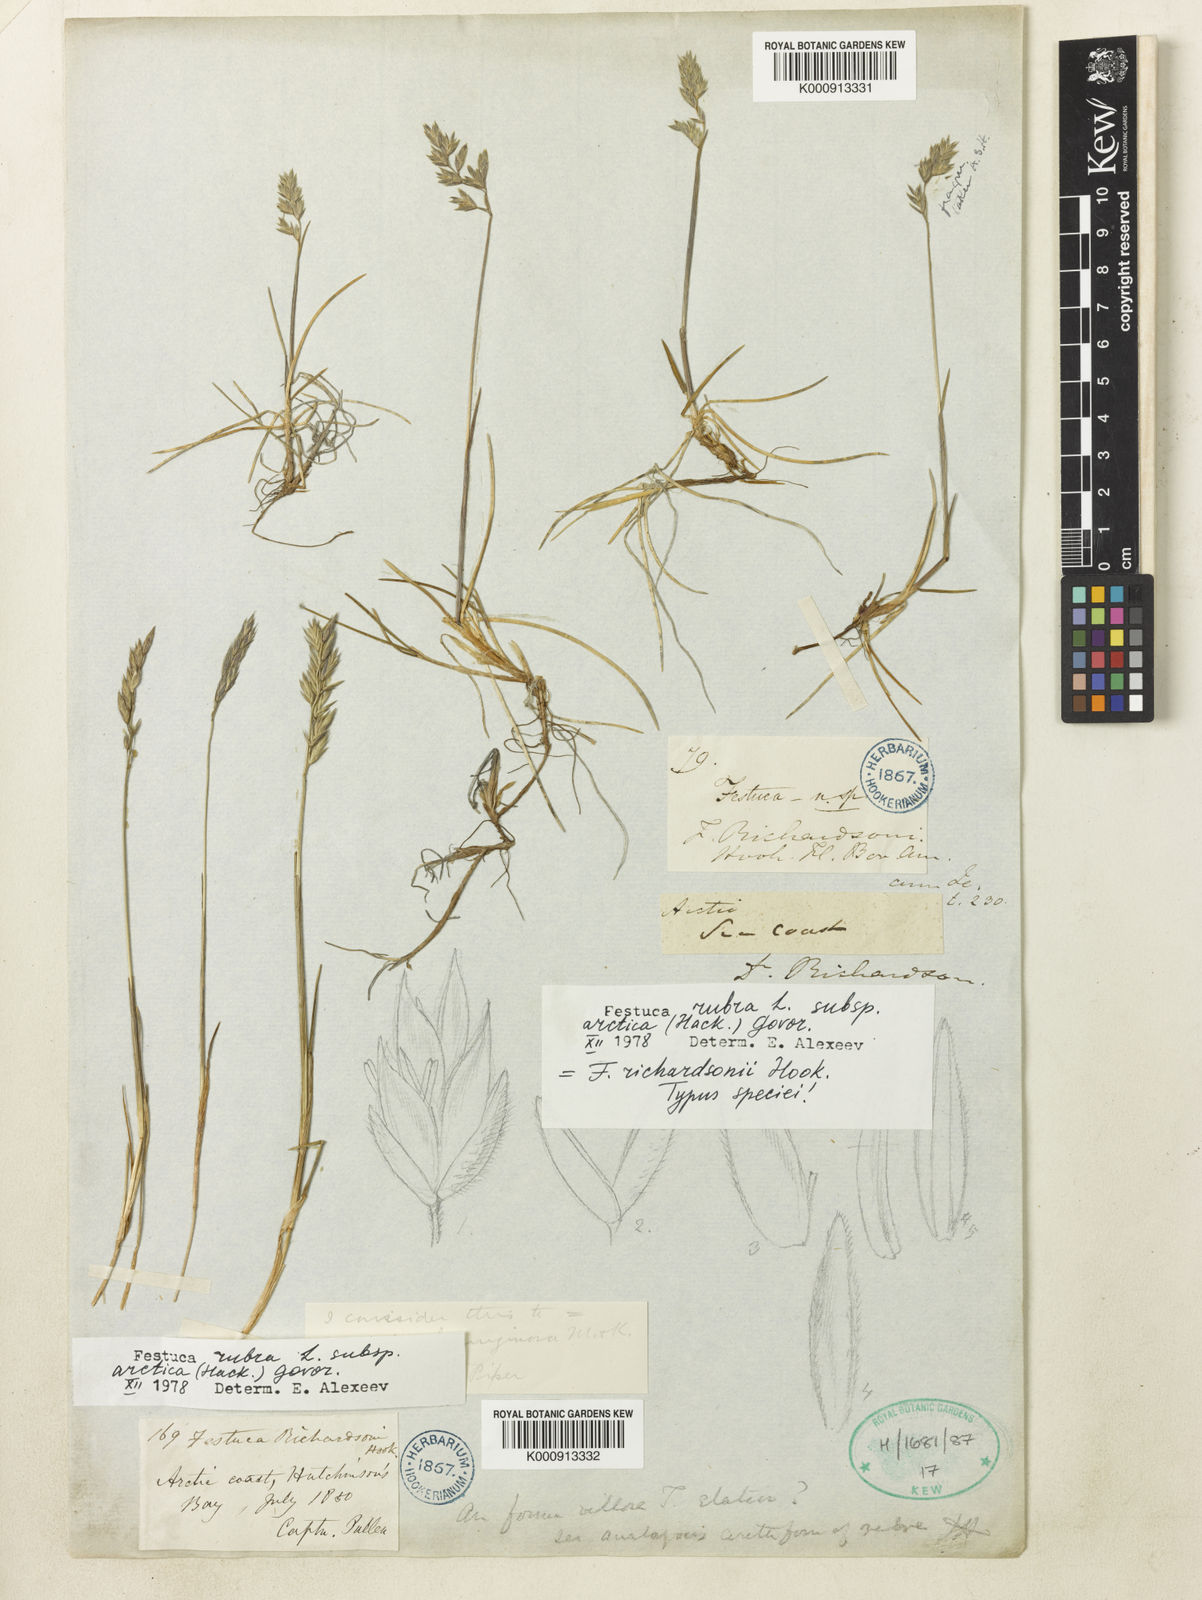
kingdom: Plantae
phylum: Tracheophyta
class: Liliopsida
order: Poales
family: Poaceae
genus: Festuca
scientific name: Festuca rubra
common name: Red fescue
